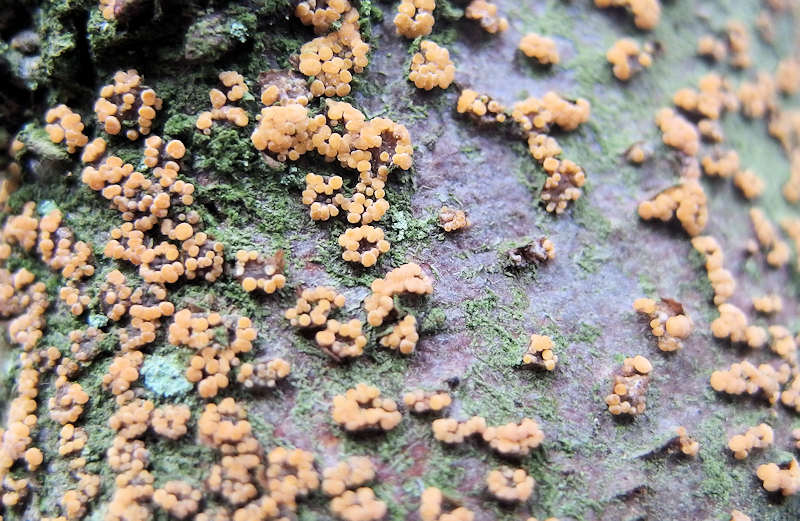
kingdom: Fungi
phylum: Ascomycota
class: Leotiomycetes
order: Helotiales
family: Dermateaceae
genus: Pezicula
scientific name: Pezicula carpinea
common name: avnbøg-klyngeskive
